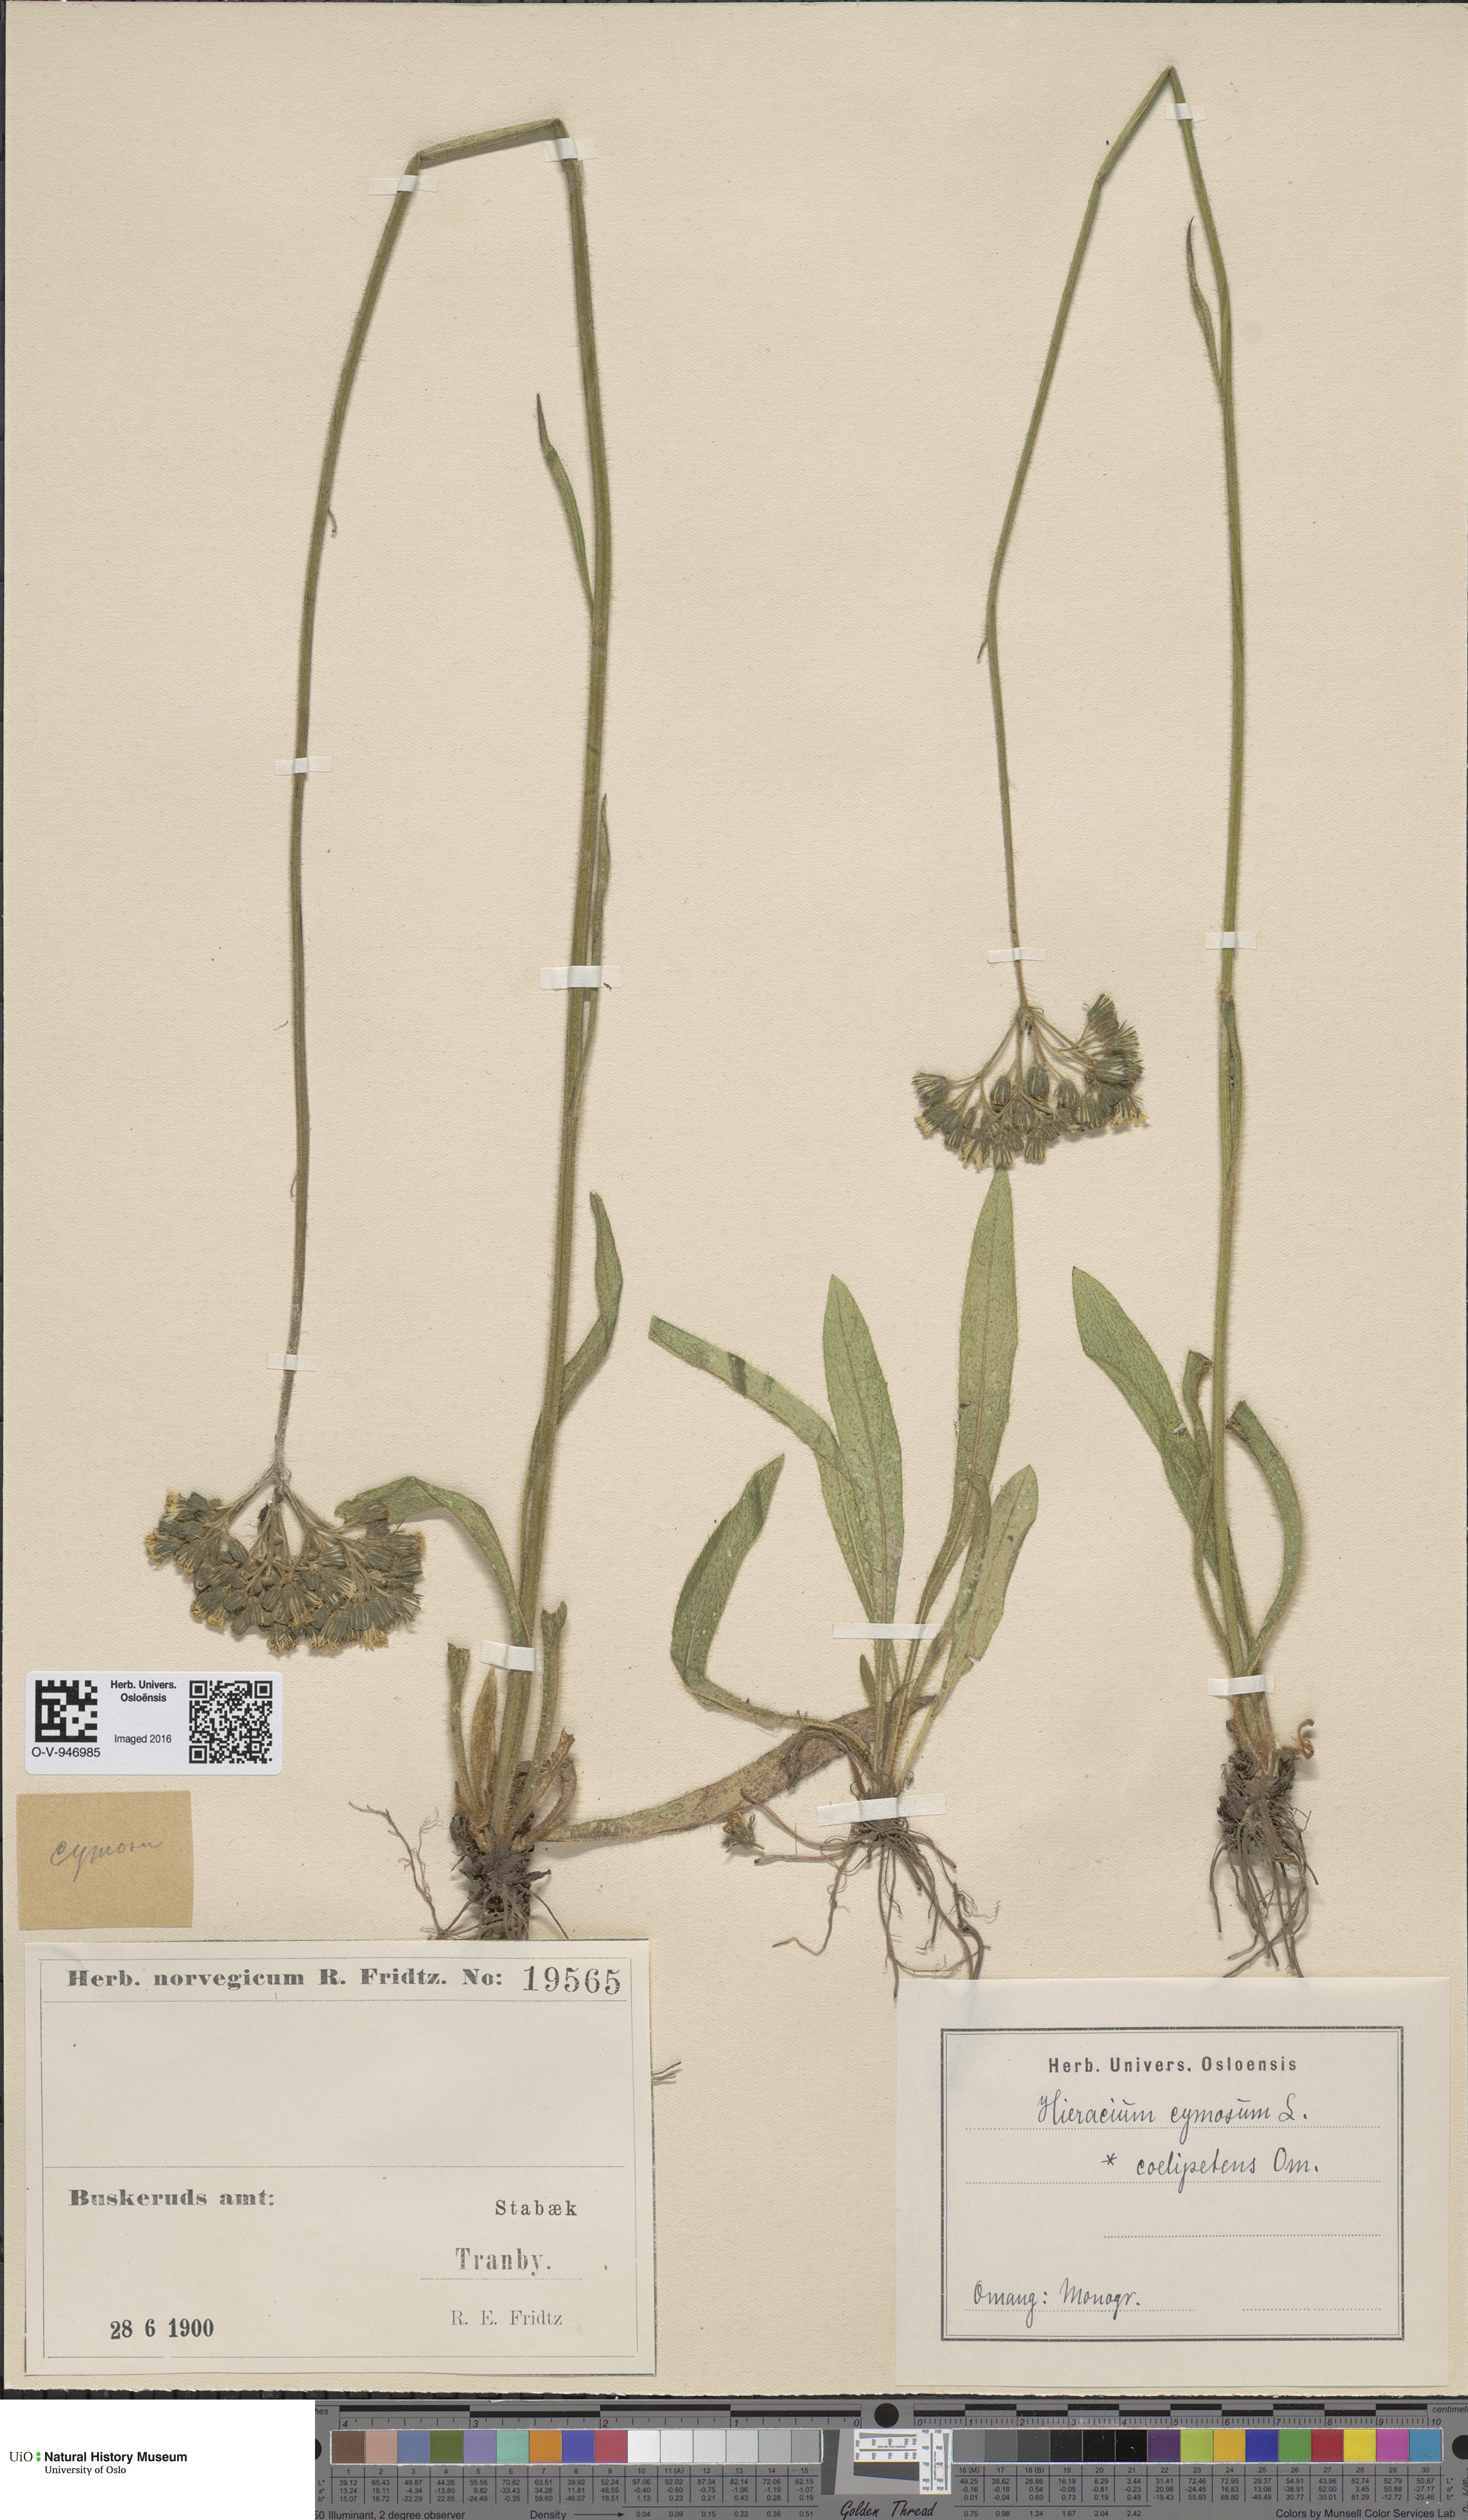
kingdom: Plantae
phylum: Tracheophyta
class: Magnoliopsida
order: Asterales
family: Asteraceae
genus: Pilosella
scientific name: Pilosella cymosa
